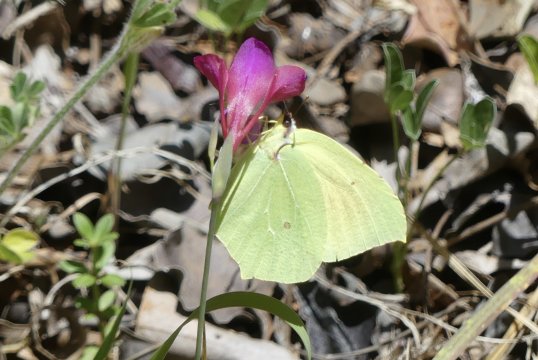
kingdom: Animalia
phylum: Arthropoda
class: Insecta
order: Lepidoptera
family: Pieridae
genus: Gonepteryx
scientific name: Gonepteryx cleopatra
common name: Cleopatra Butterfly
